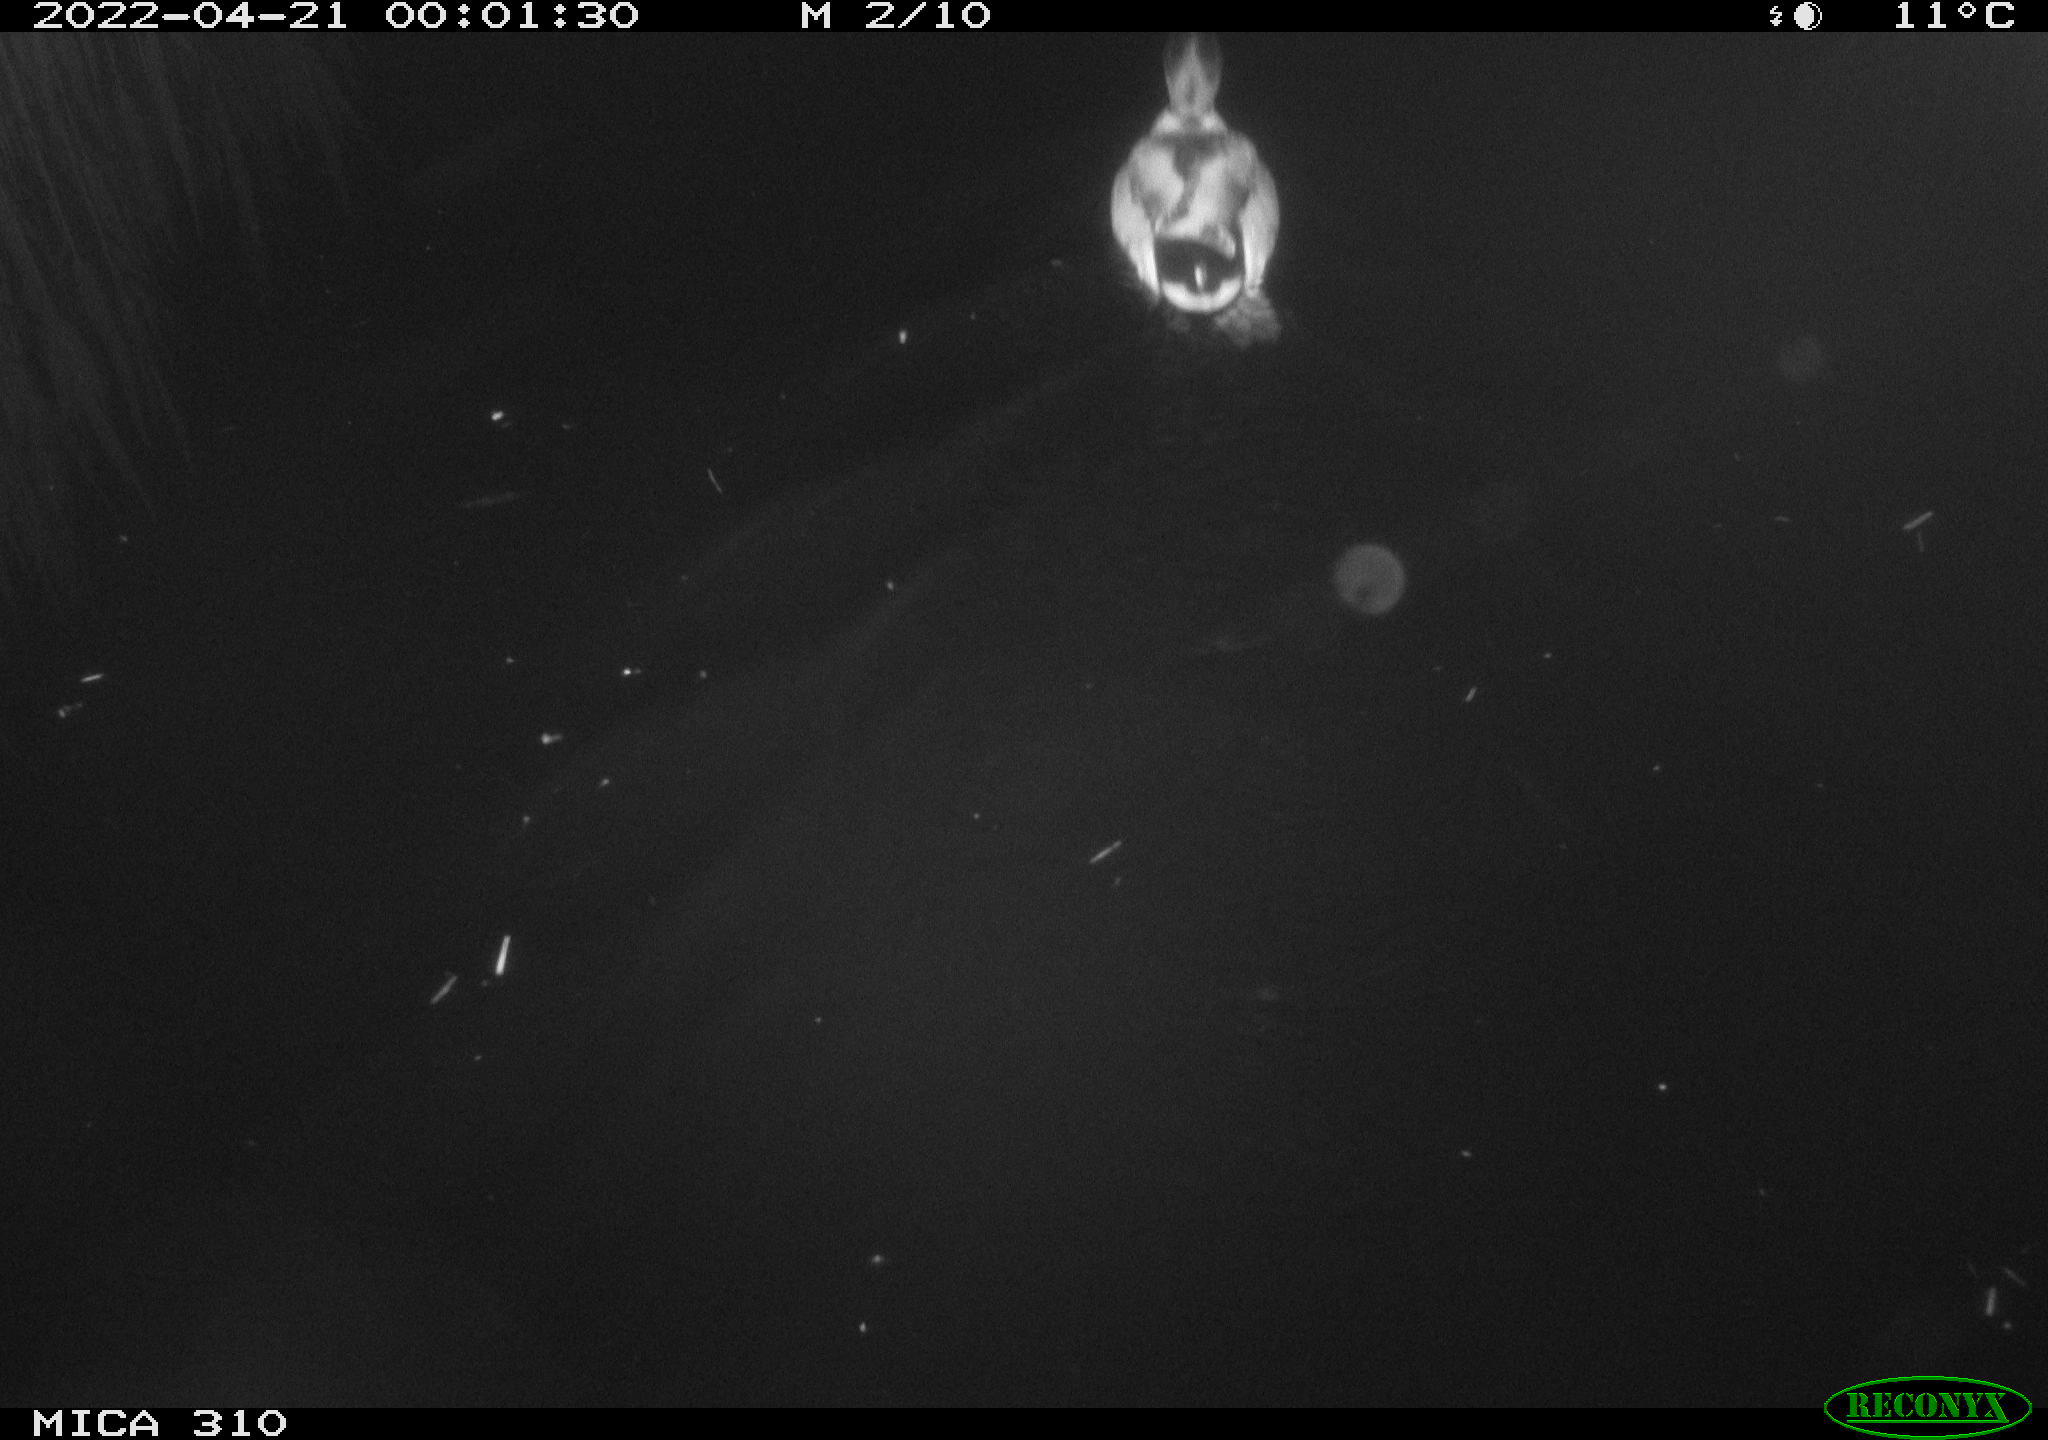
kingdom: Animalia
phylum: Chordata
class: Aves
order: Anseriformes
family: Anatidae
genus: Anas
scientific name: Anas platyrhynchos
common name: Mallard
